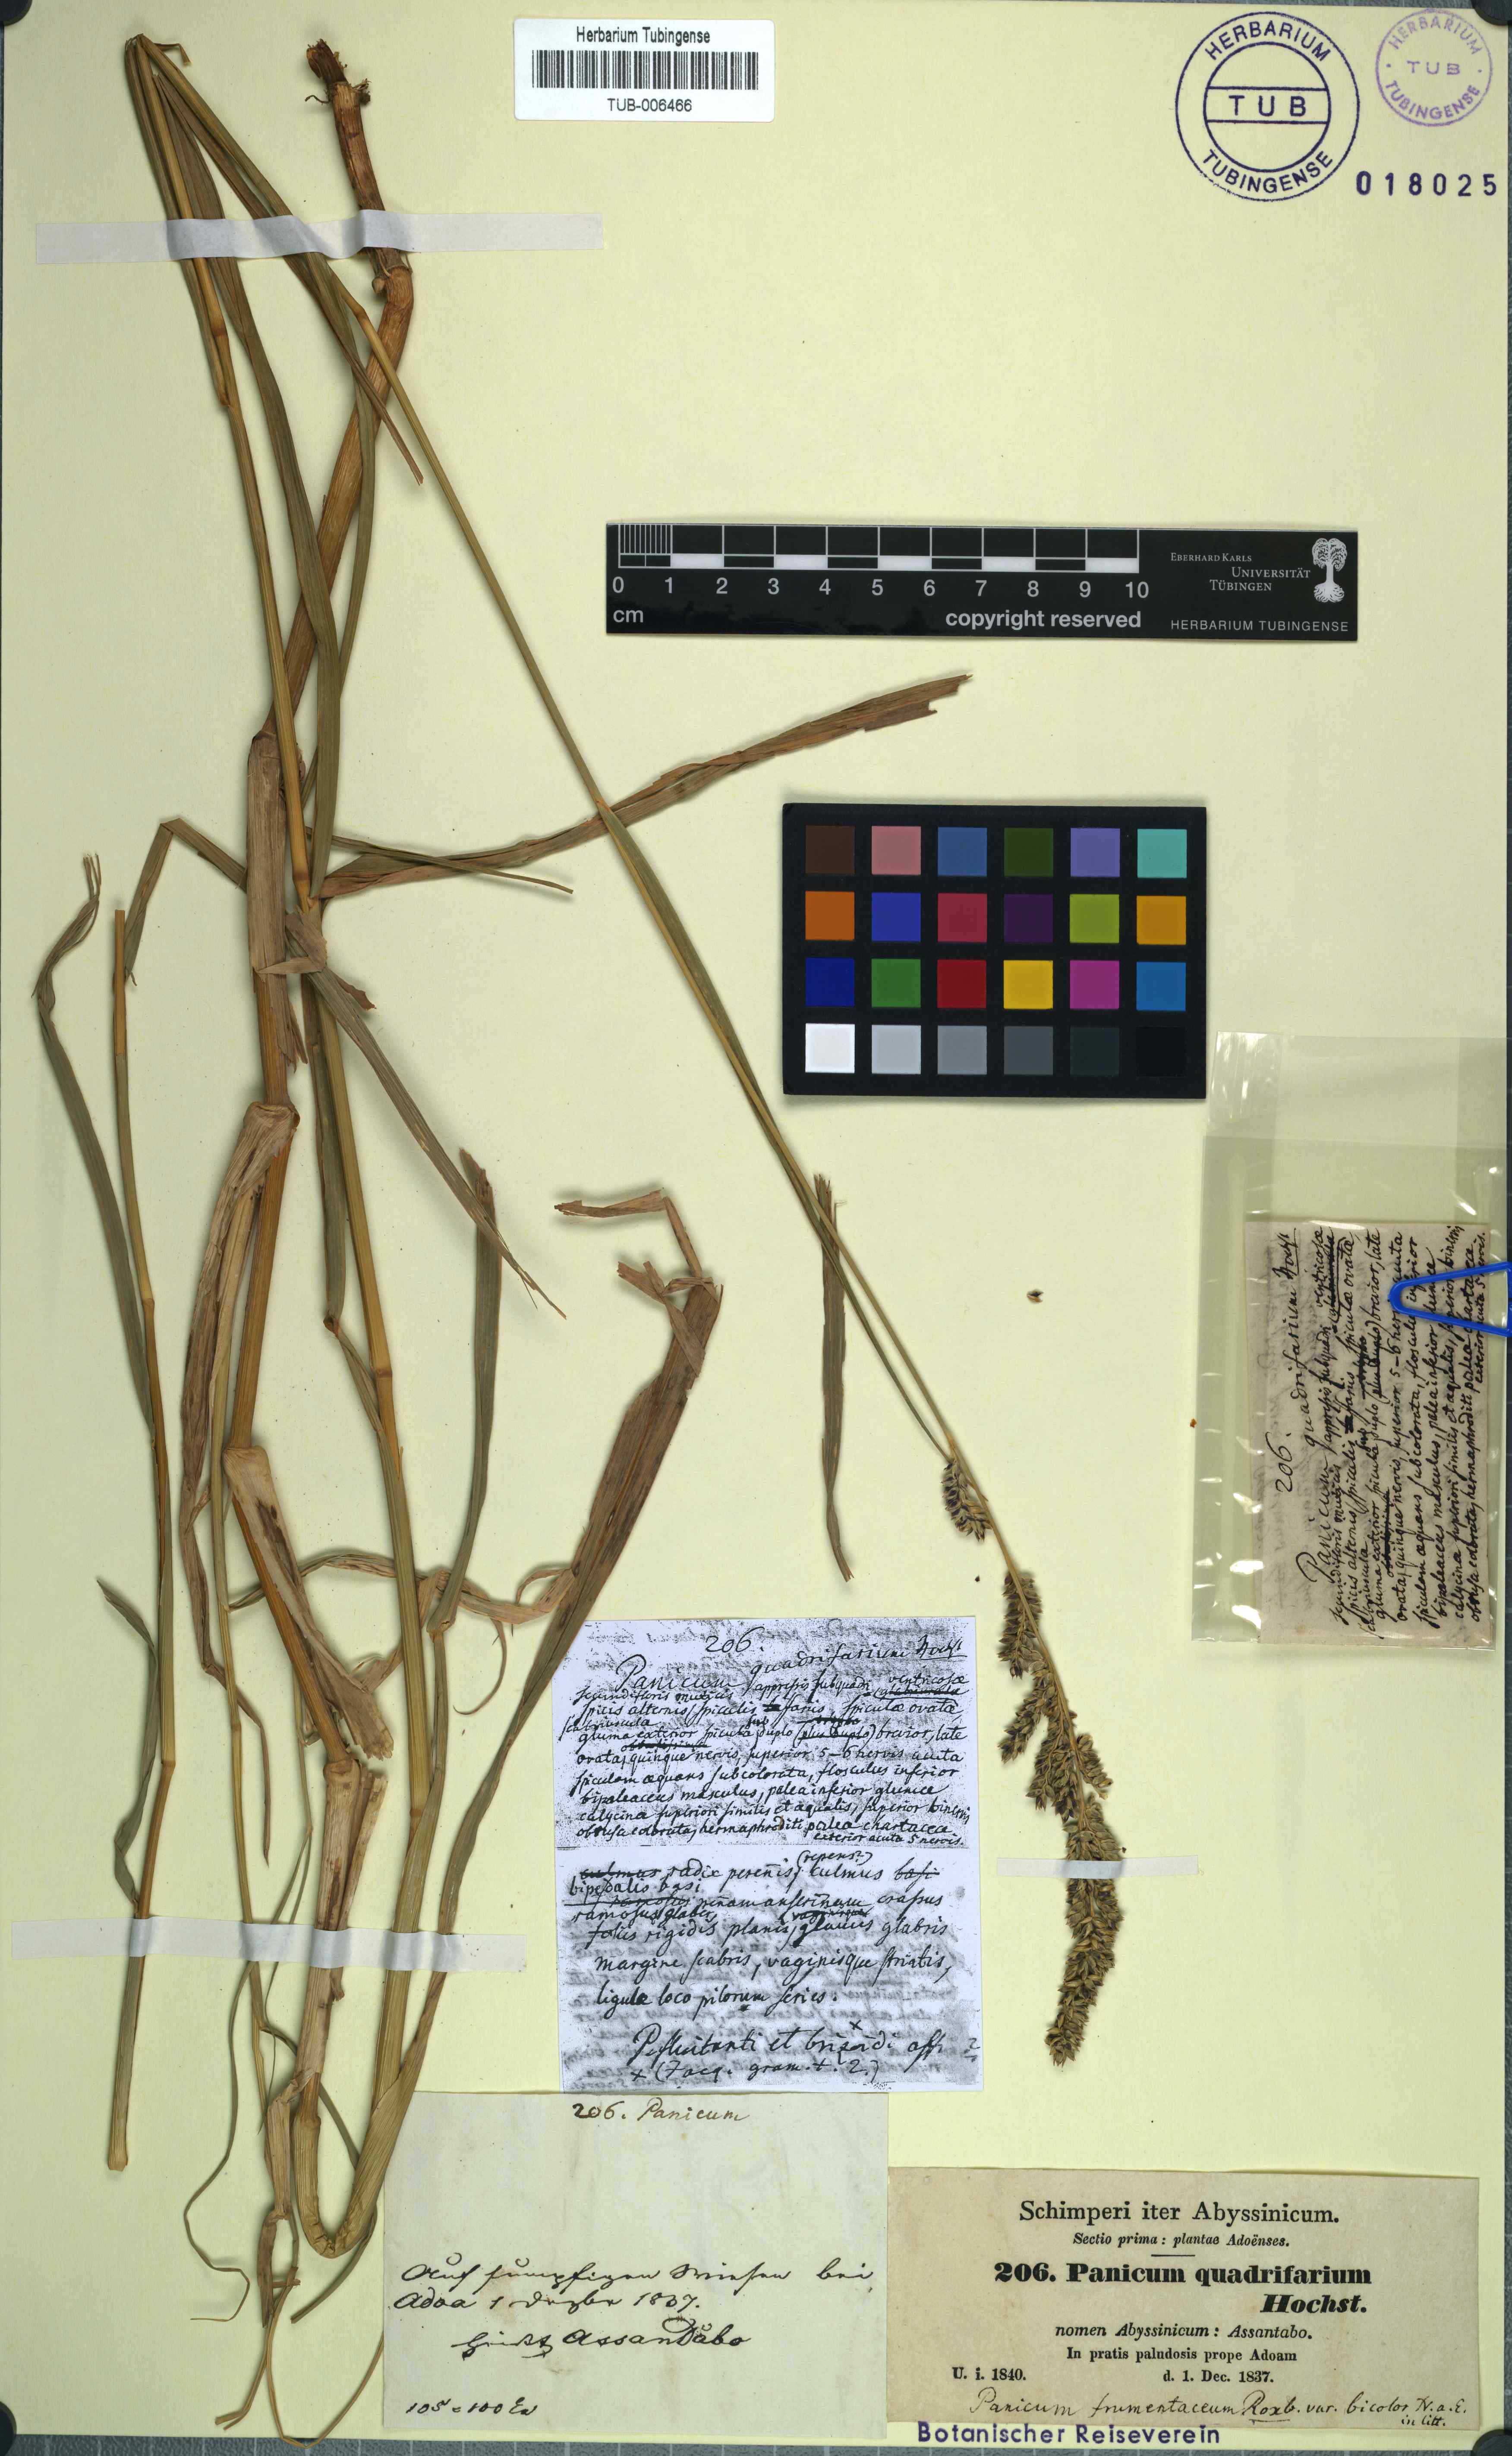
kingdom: Plantae
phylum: Tracheophyta
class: Liliopsida
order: Poales
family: Poaceae
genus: Panicum
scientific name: Panicum quadrifarium
